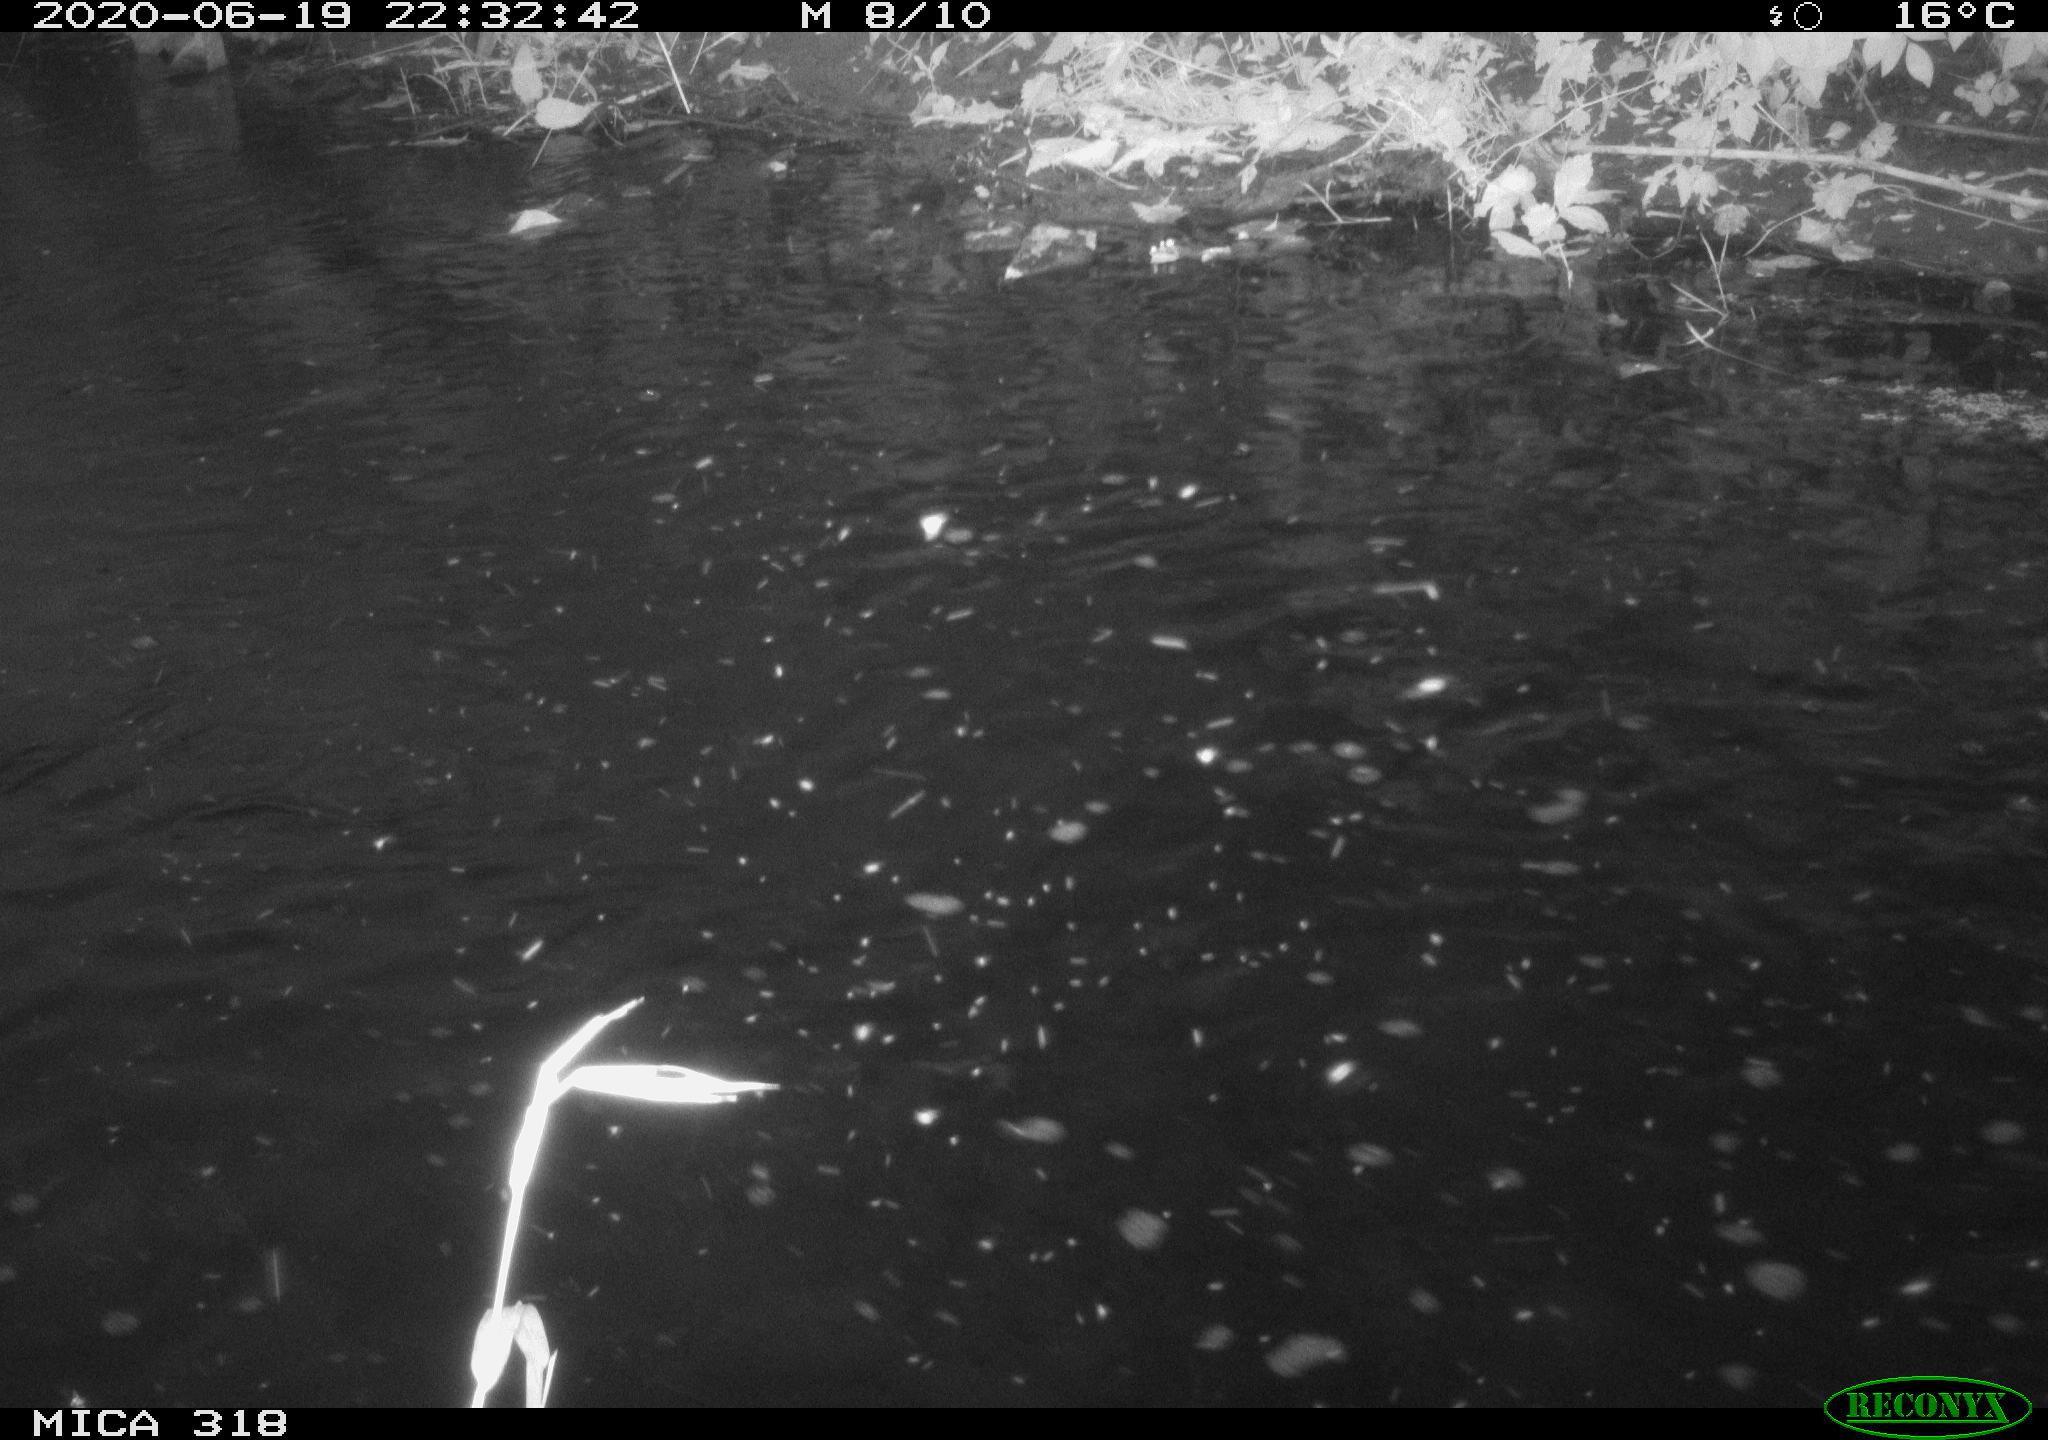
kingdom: Animalia
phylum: Chordata
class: Aves
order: Pelecaniformes
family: Ardeidae
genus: Ardea
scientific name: Ardea cinerea
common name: Grey heron
